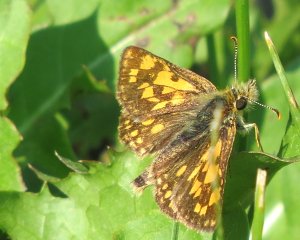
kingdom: Animalia
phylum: Arthropoda
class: Insecta
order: Lepidoptera
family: Hesperiidae
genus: Carterocephalus
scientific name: Carterocephalus palaemon
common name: Chequered Skipper
